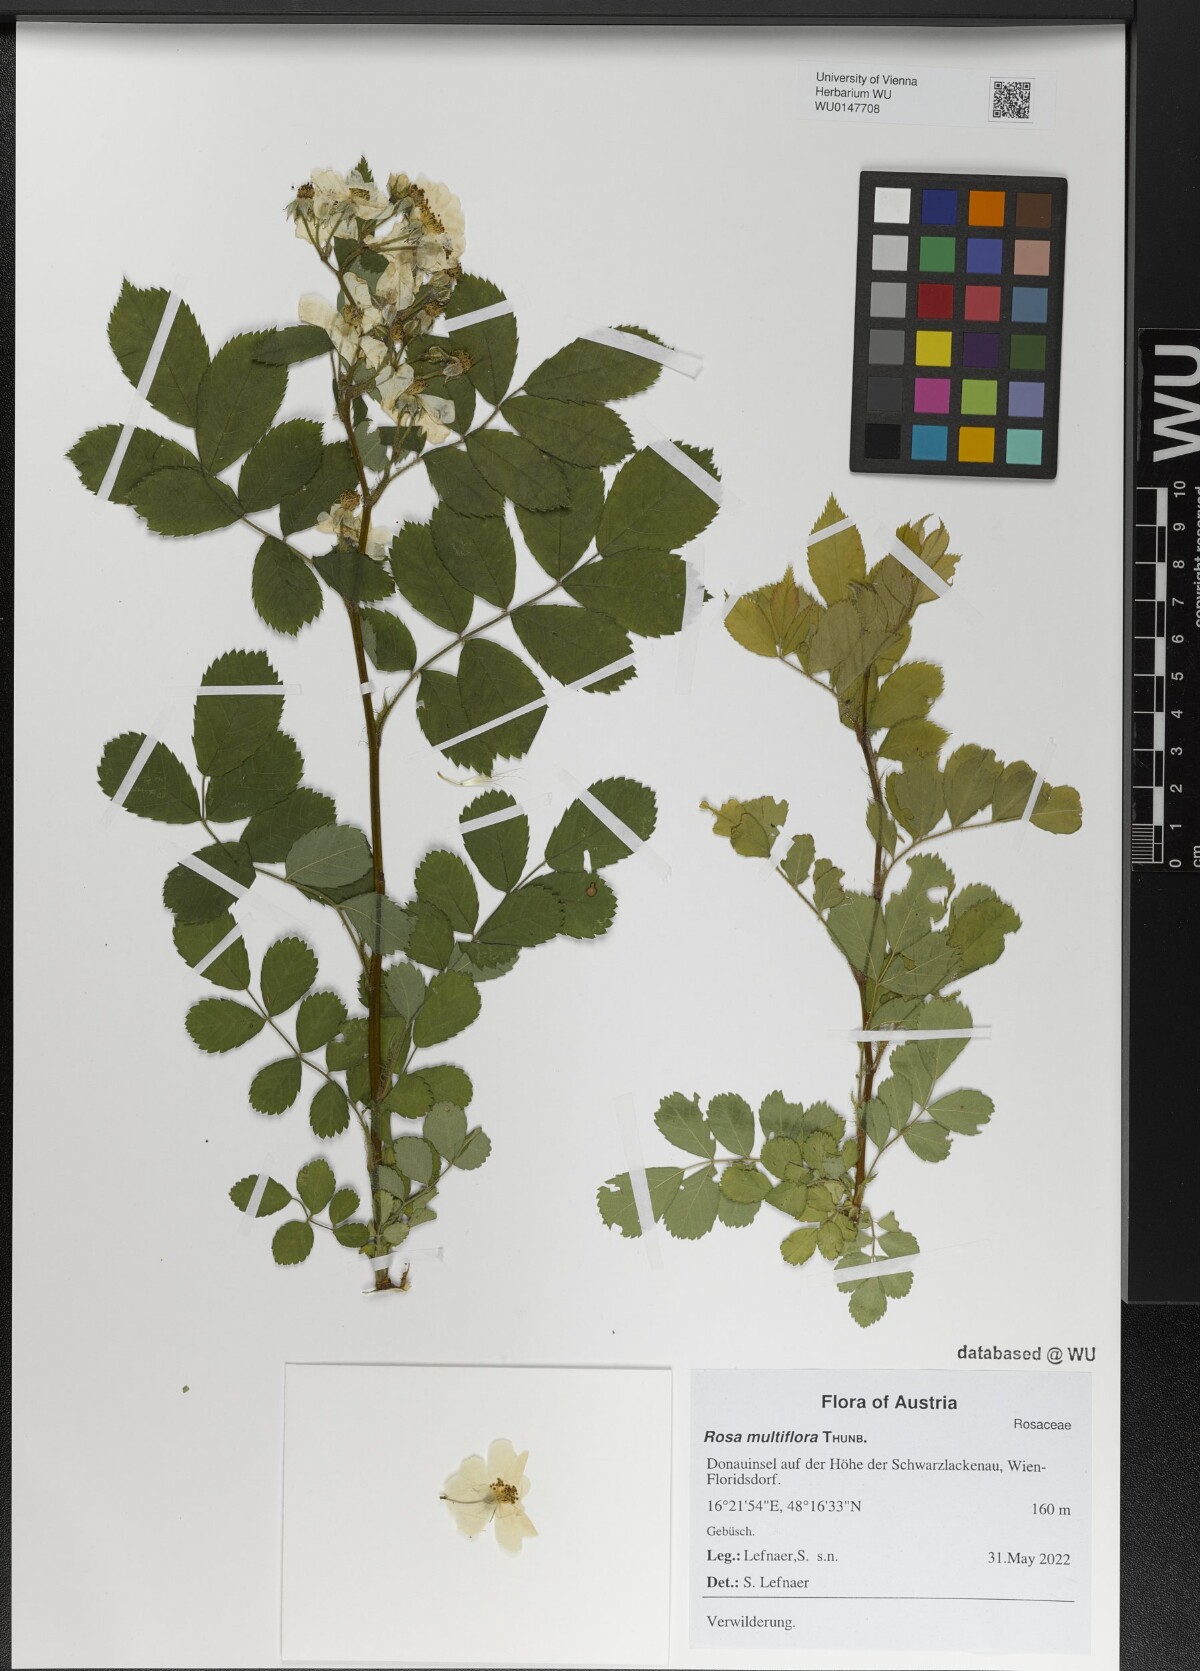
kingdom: Plantae
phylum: Tracheophyta
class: Magnoliopsida
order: Rosales
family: Rosaceae
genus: Rosa
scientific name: Rosa multiflora
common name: Multiflora rose
